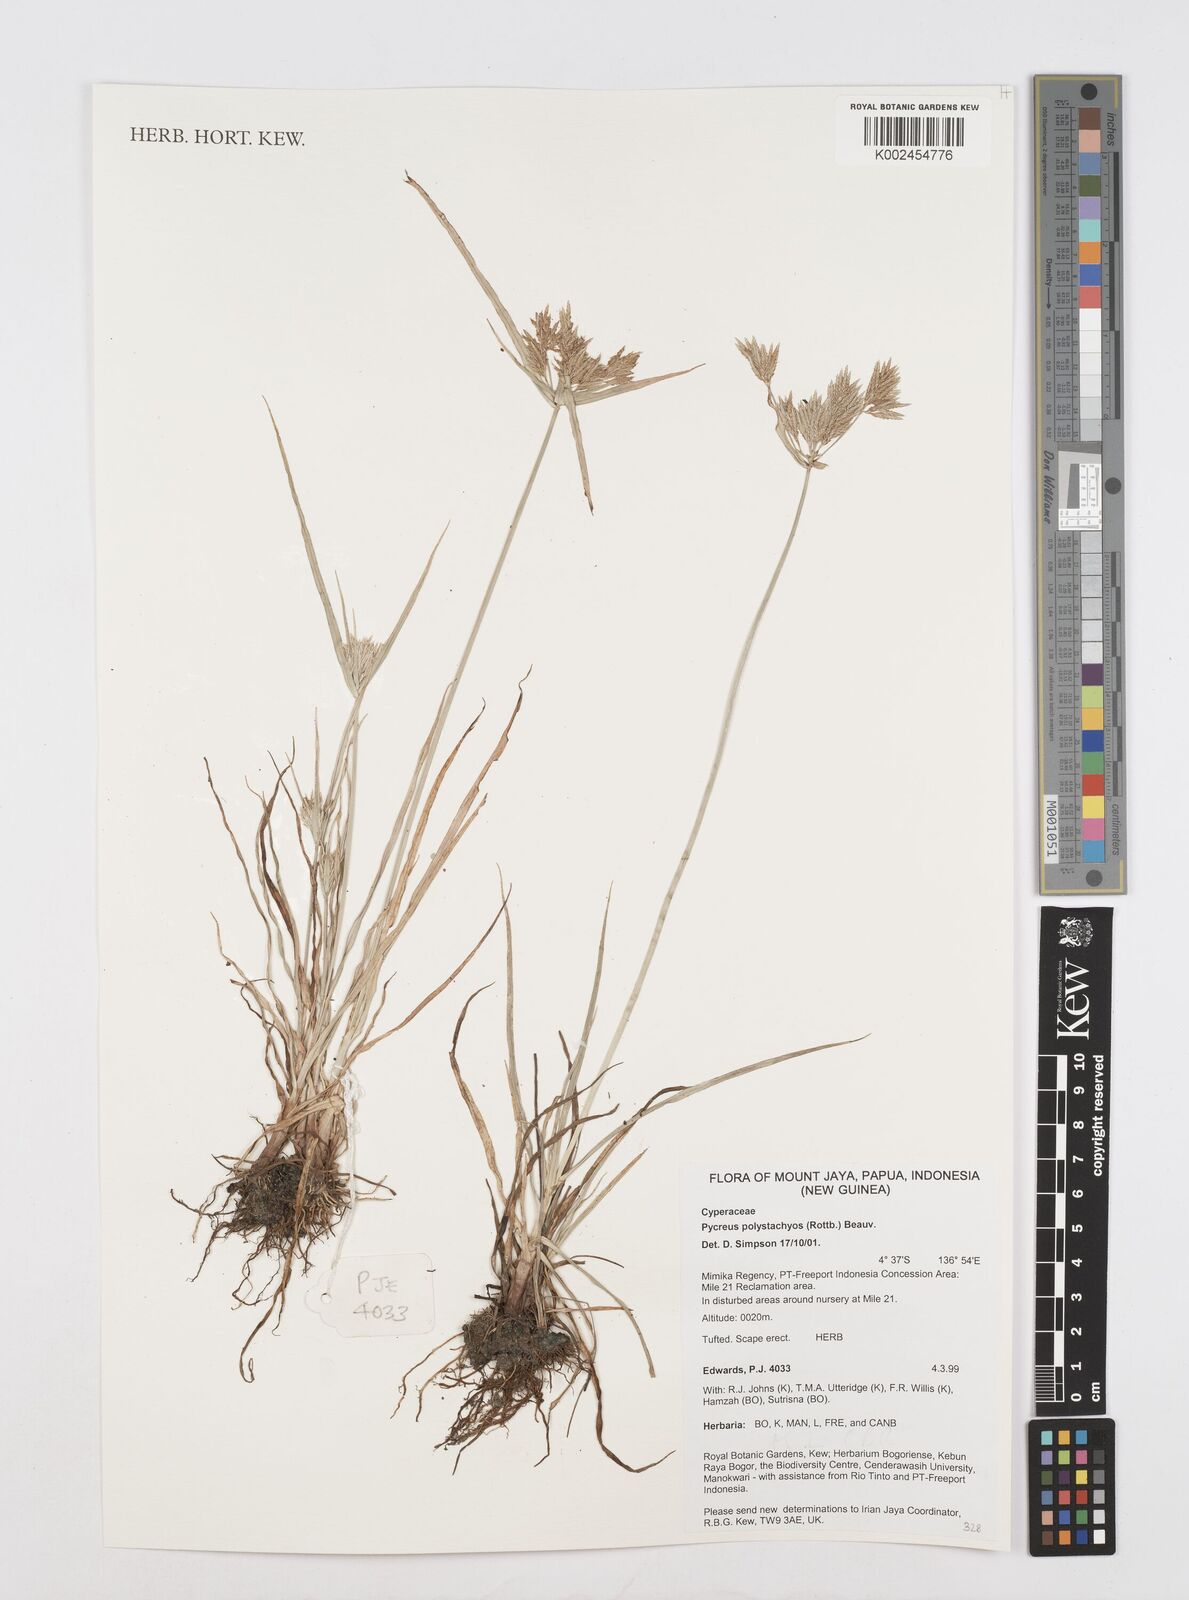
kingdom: Plantae
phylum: Tracheophyta
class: Liliopsida
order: Poales
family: Cyperaceae
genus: Cyperus
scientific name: Cyperus polystachyos
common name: Bunchy flat sedge
